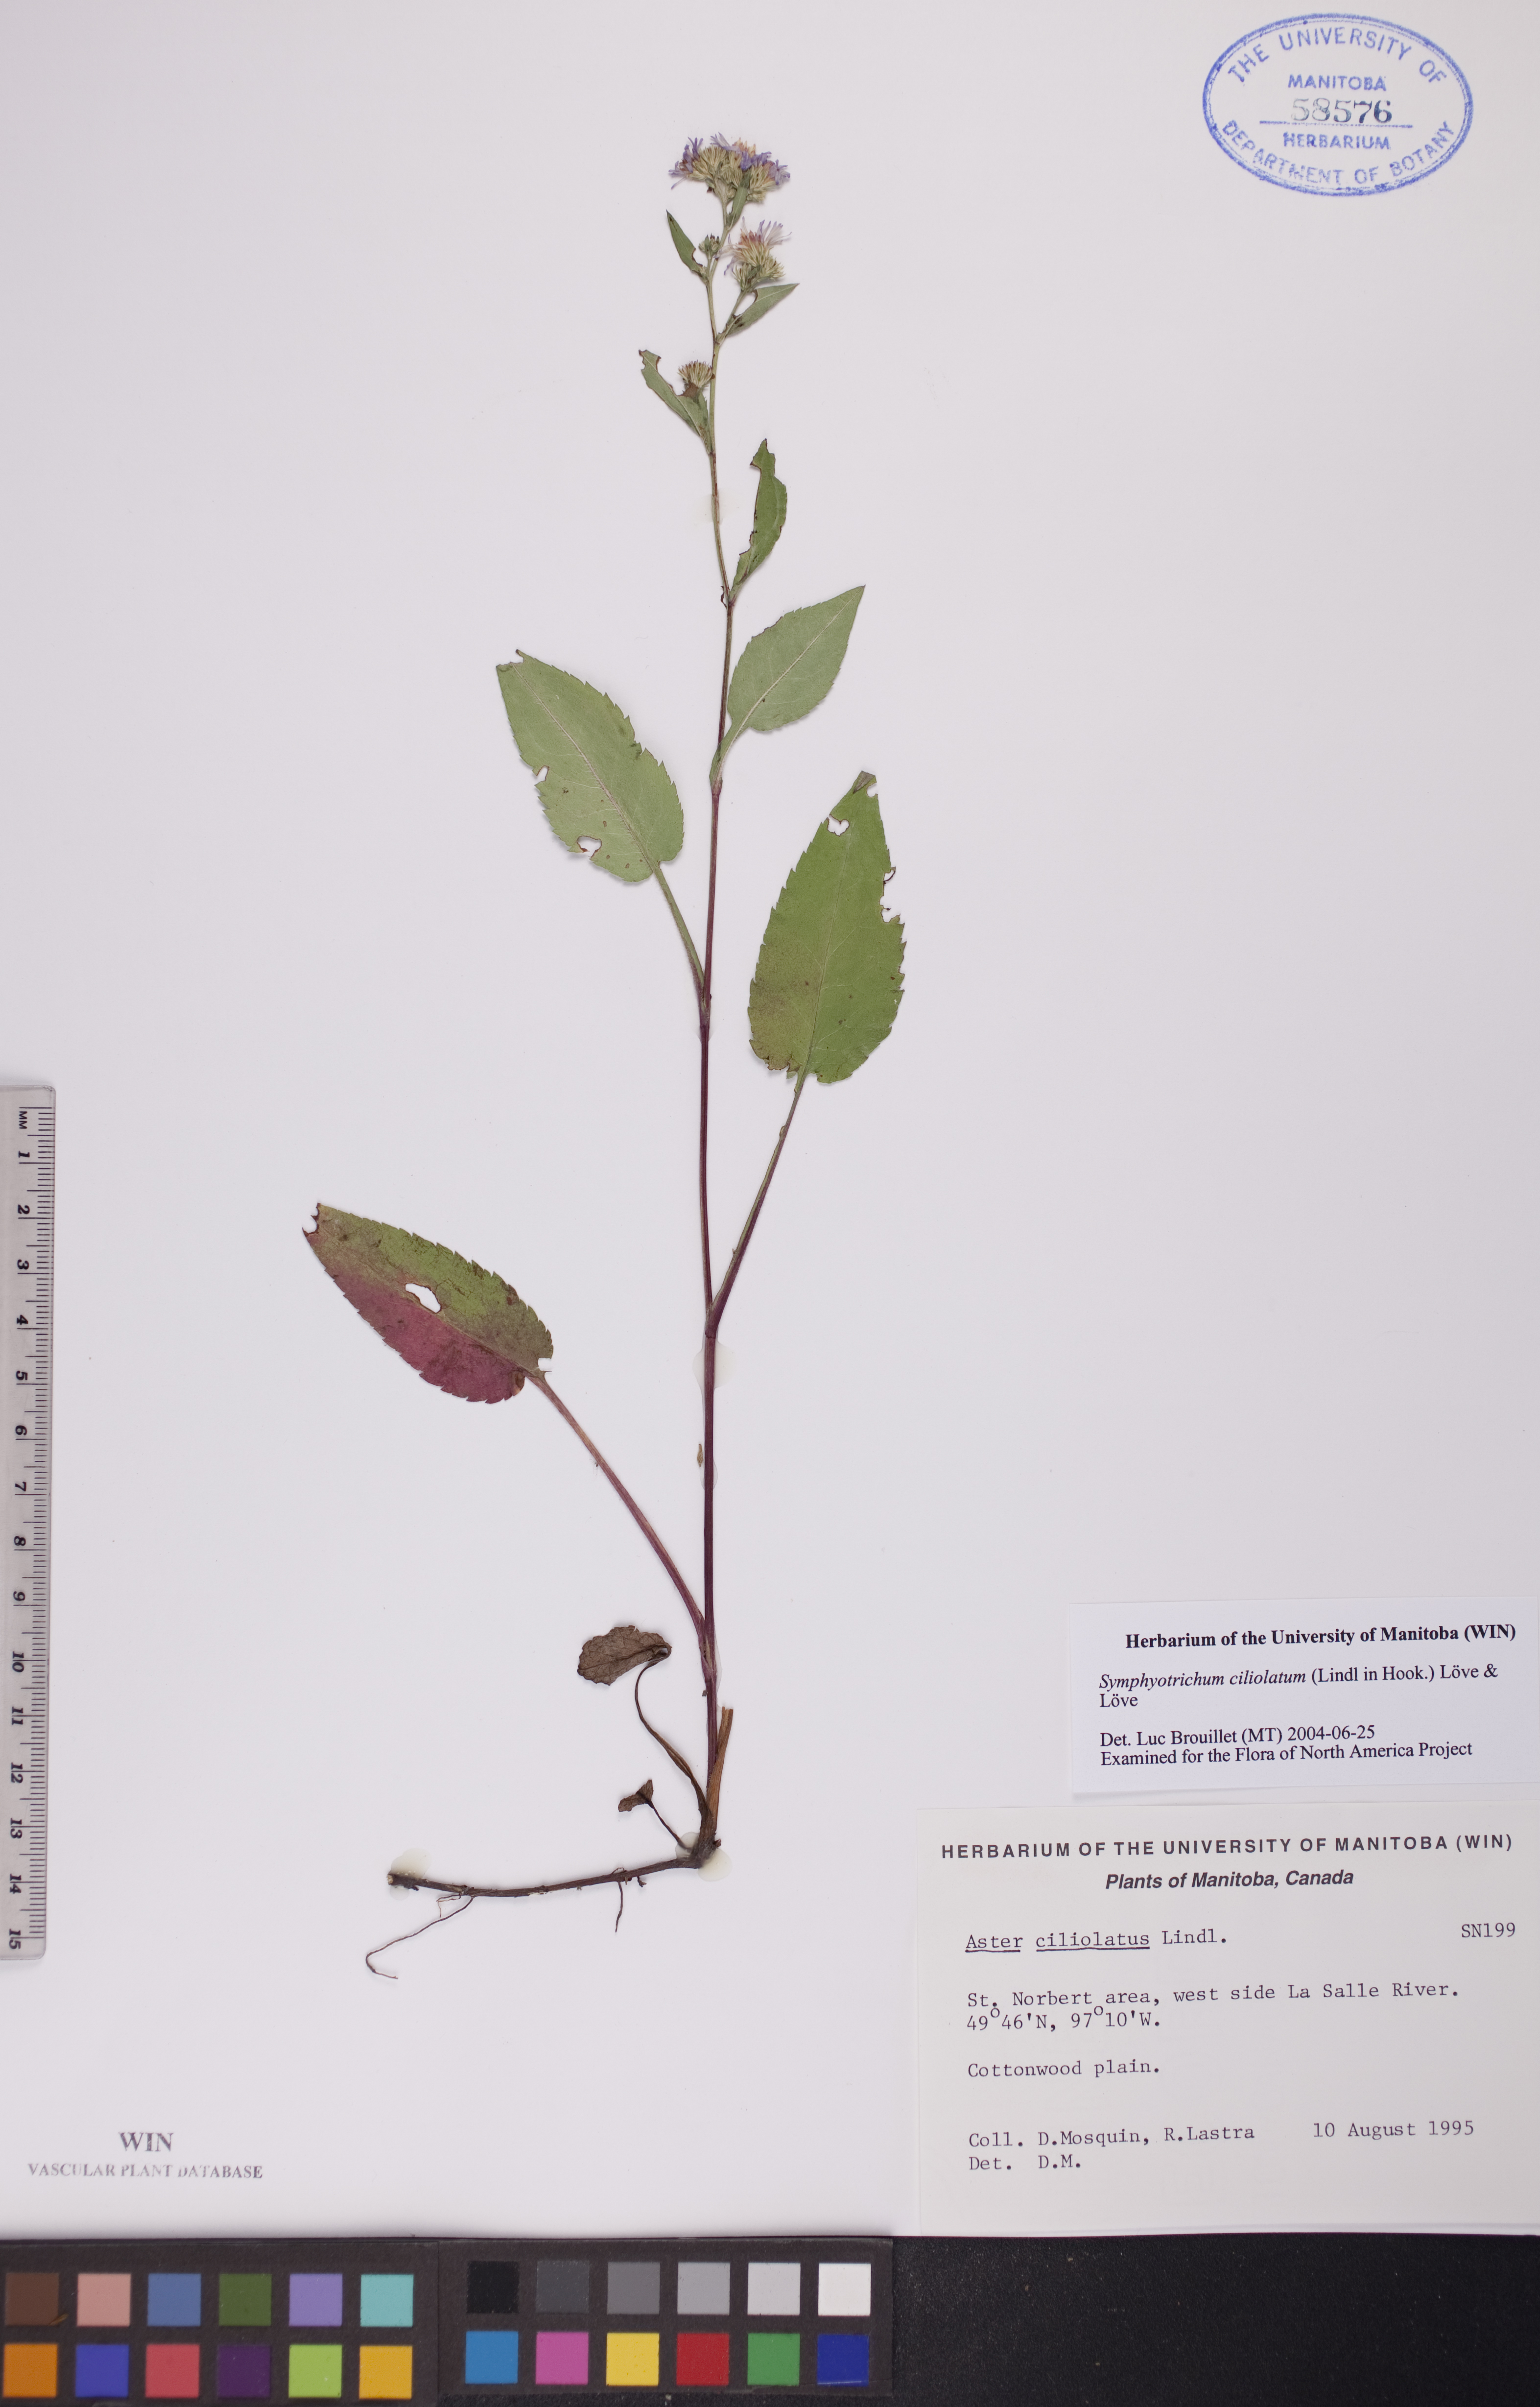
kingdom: Plantae
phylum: Tracheophyta
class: Magnoliopsida
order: Asterales
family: Asteraceae
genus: Symphyotrichum
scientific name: Symphyotrichum ciliolatum
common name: Fringed blue aster
